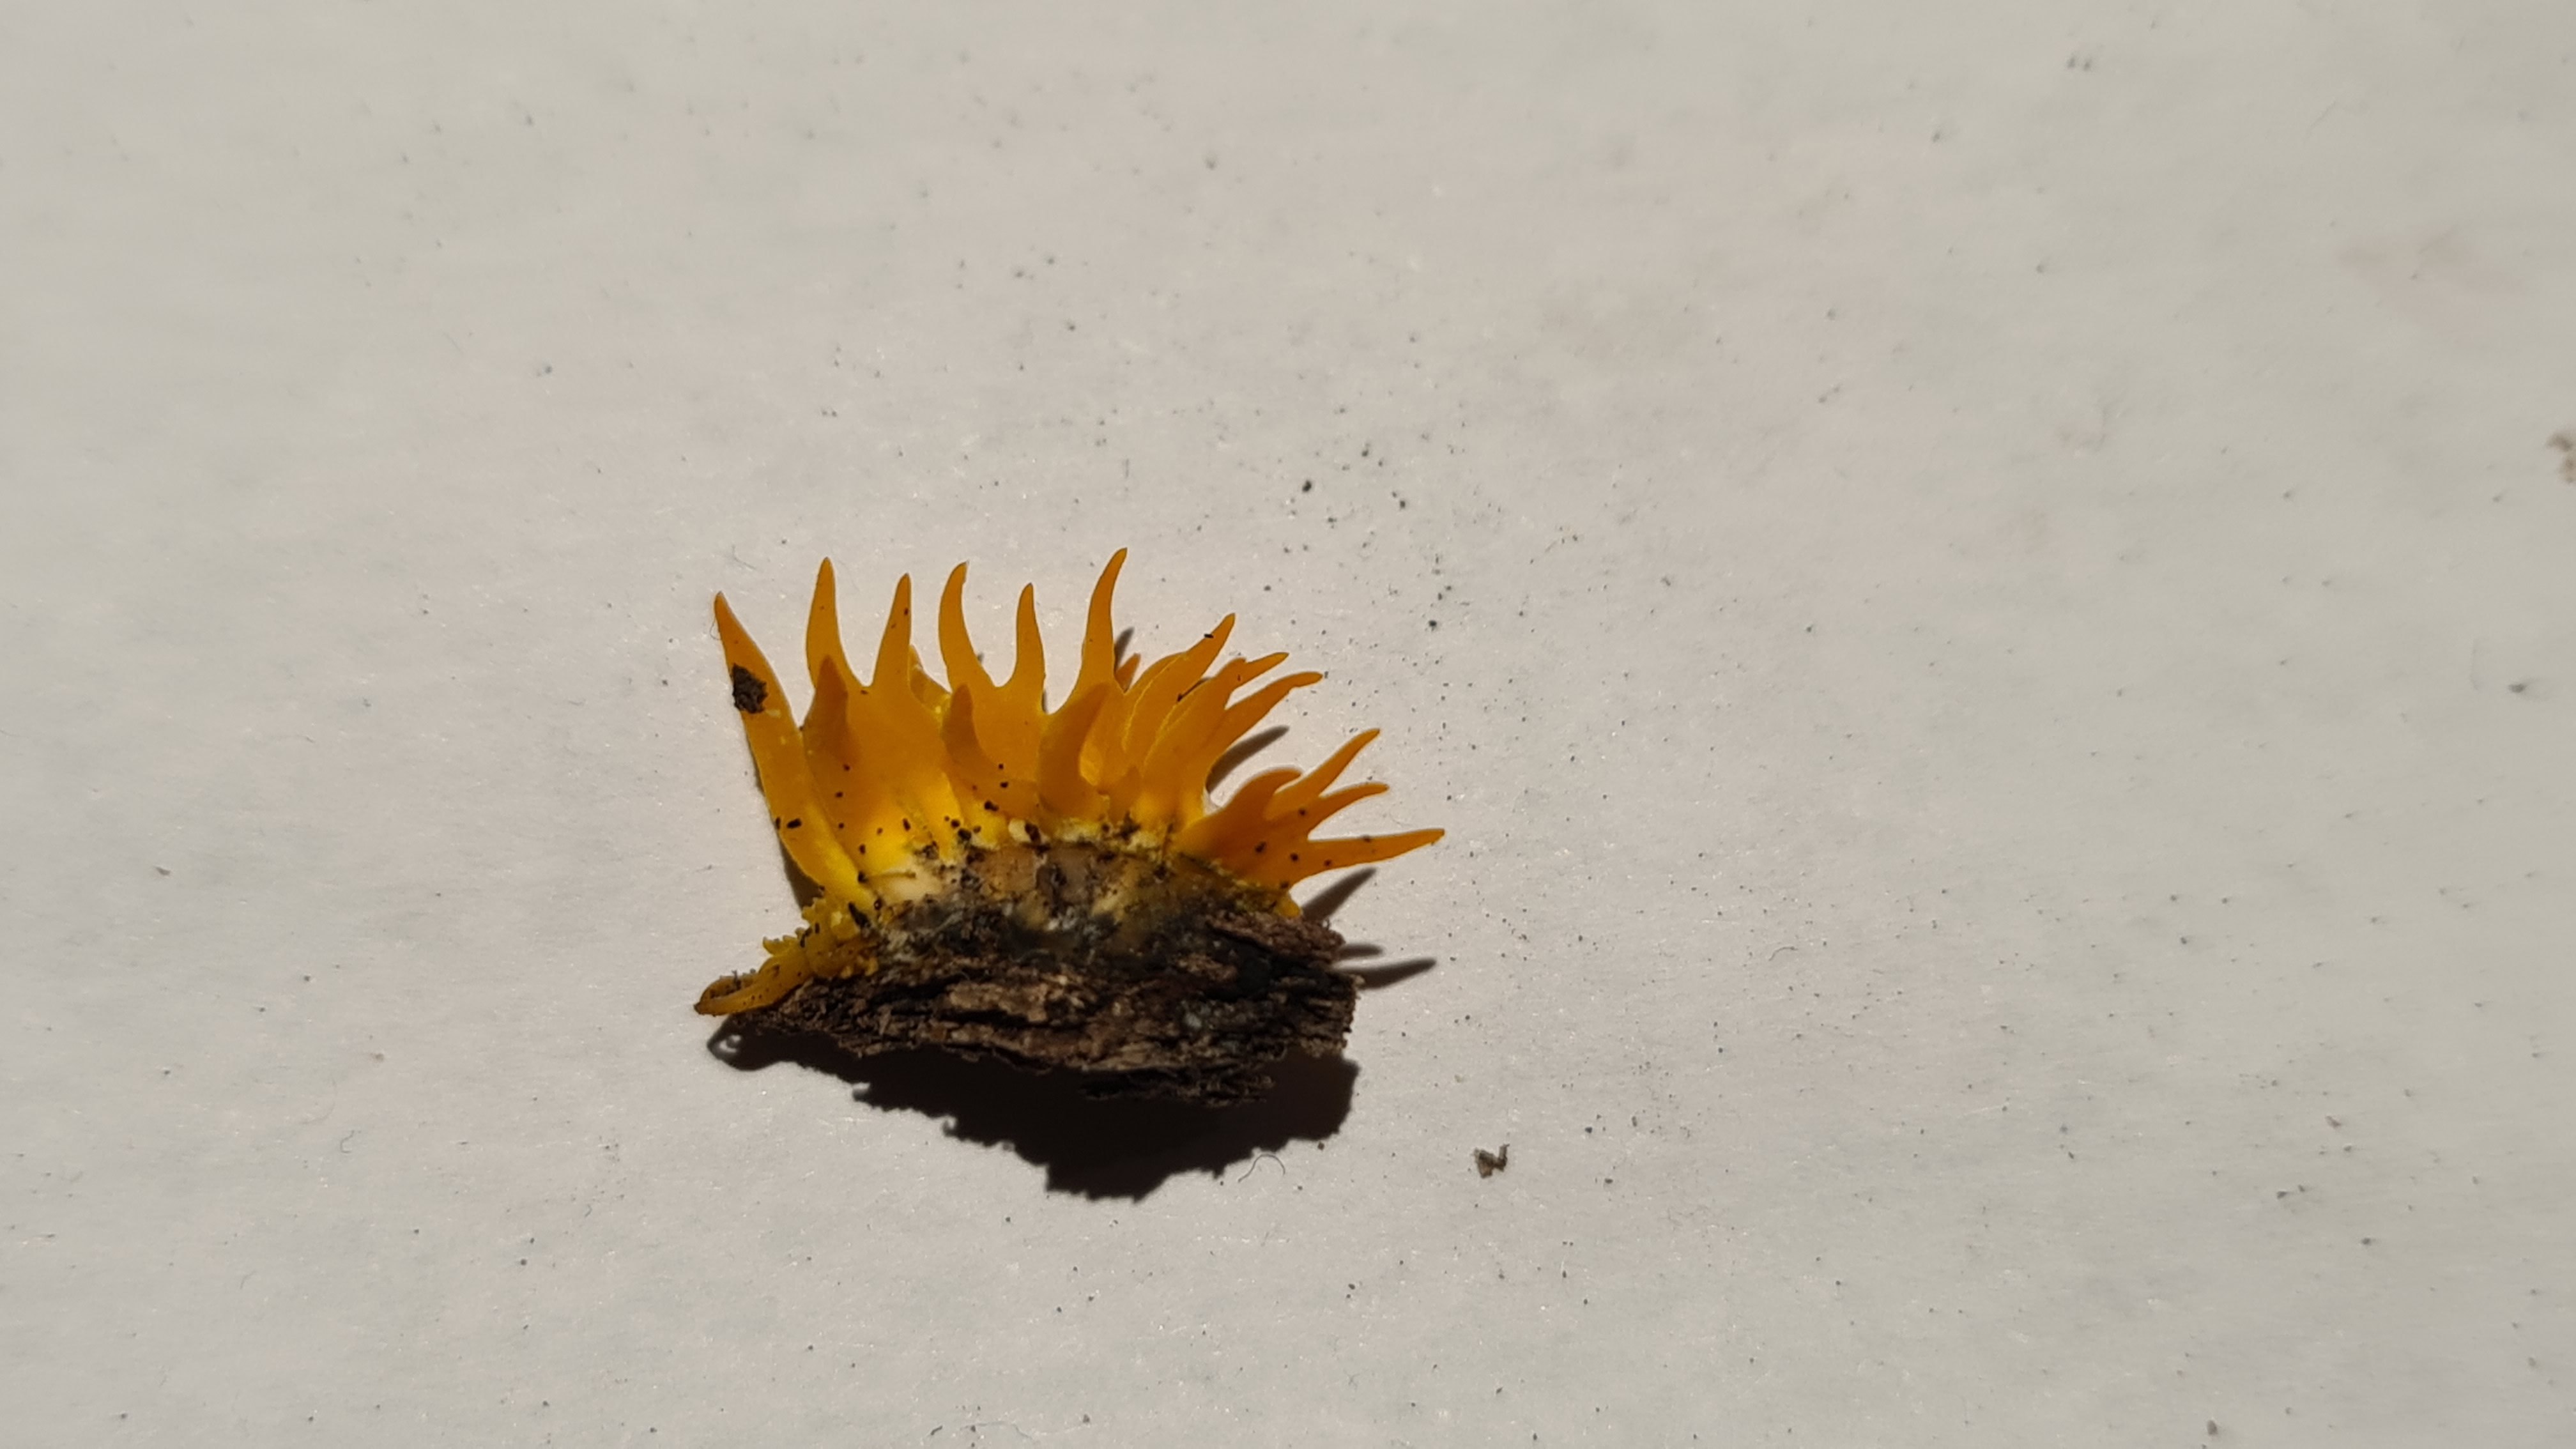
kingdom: Fungi
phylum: Basidiomycota
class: Dacrymycetes
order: Dacrymycetales
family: Dacrymycetaceae
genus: Calocera
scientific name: Calocera cornea
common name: liden guldgaffel
